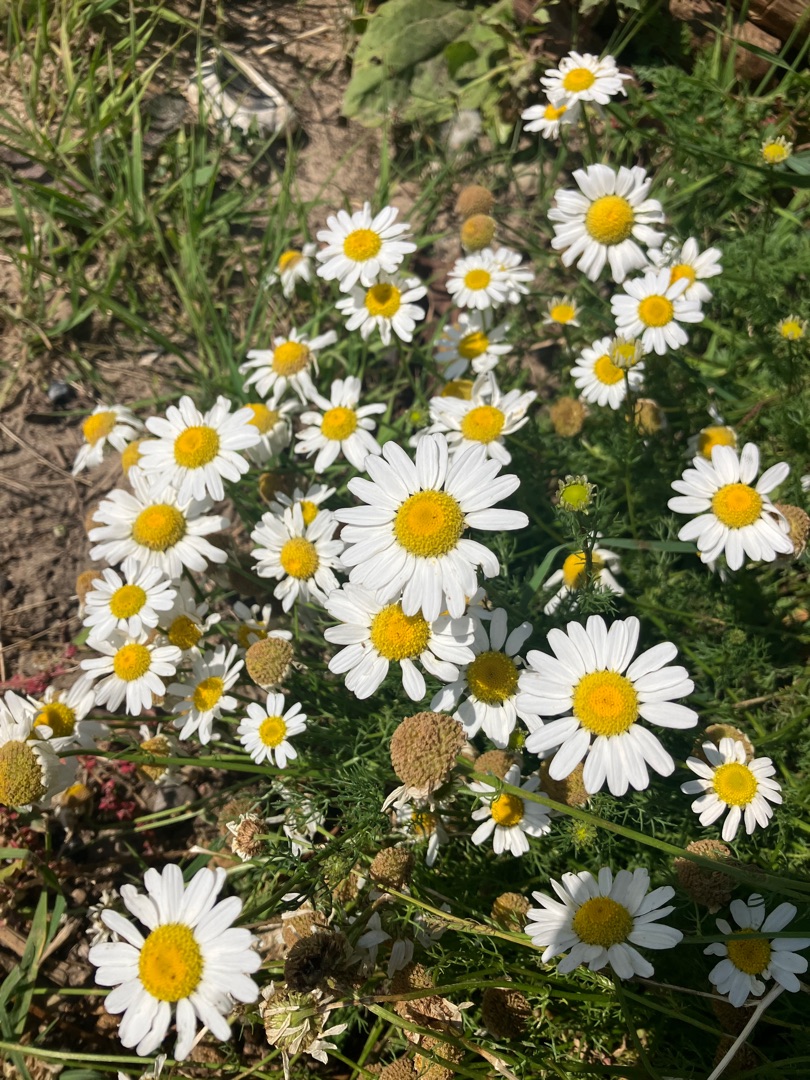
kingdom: Plantae
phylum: Tracheophyta
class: Magnoliopsida
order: Asterales
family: Asteraceae
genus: Tripleurospermum
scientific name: Tripleurospermum maritimum
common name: Strand-kamille
